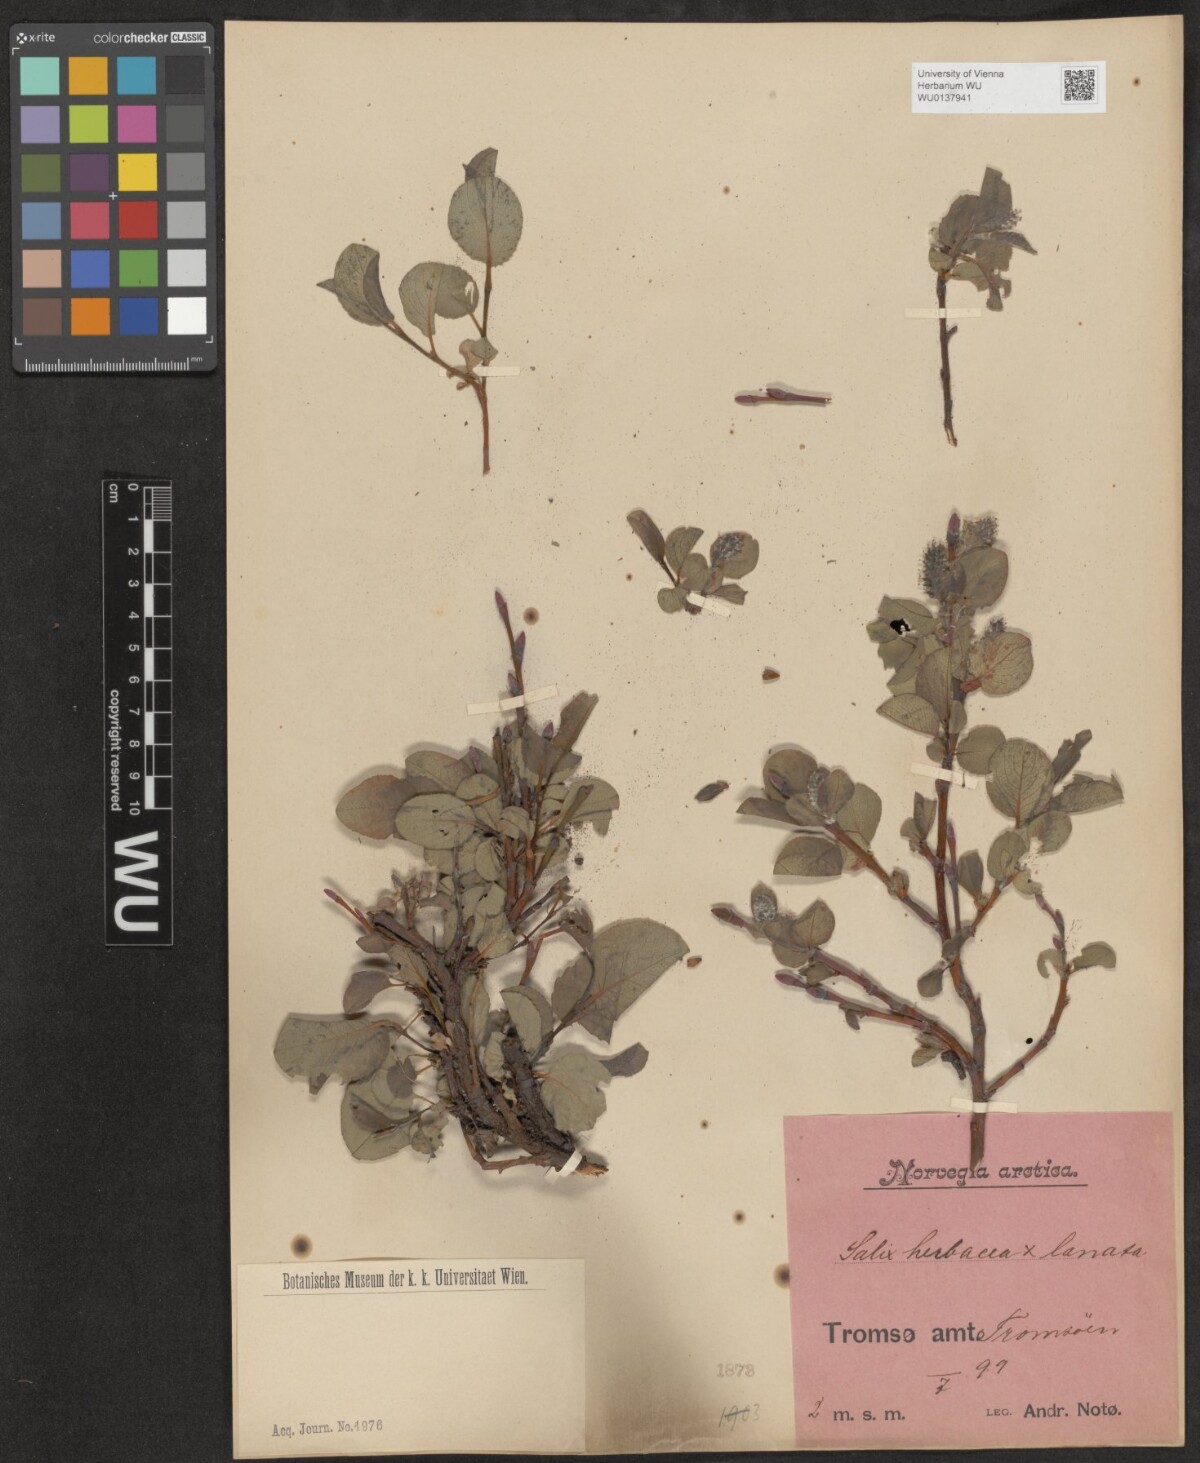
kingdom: Plantae
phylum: Tracheophyta
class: Magnoliopsida
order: Malpighiales
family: Salicaceae
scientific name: Salicaceae
